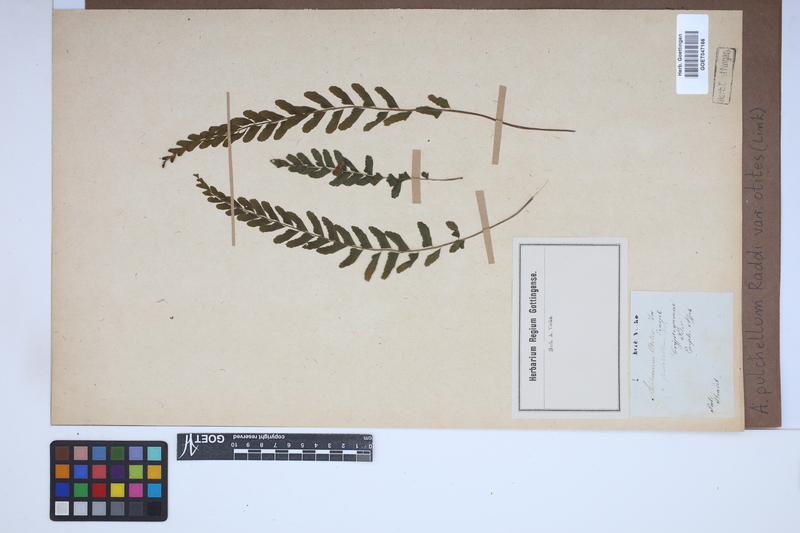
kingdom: Plantae
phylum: Tracheophyta
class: Polypodiopsida
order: Polypodiales
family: Aspleniaceae
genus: Asplenium
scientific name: Asplenium otites
